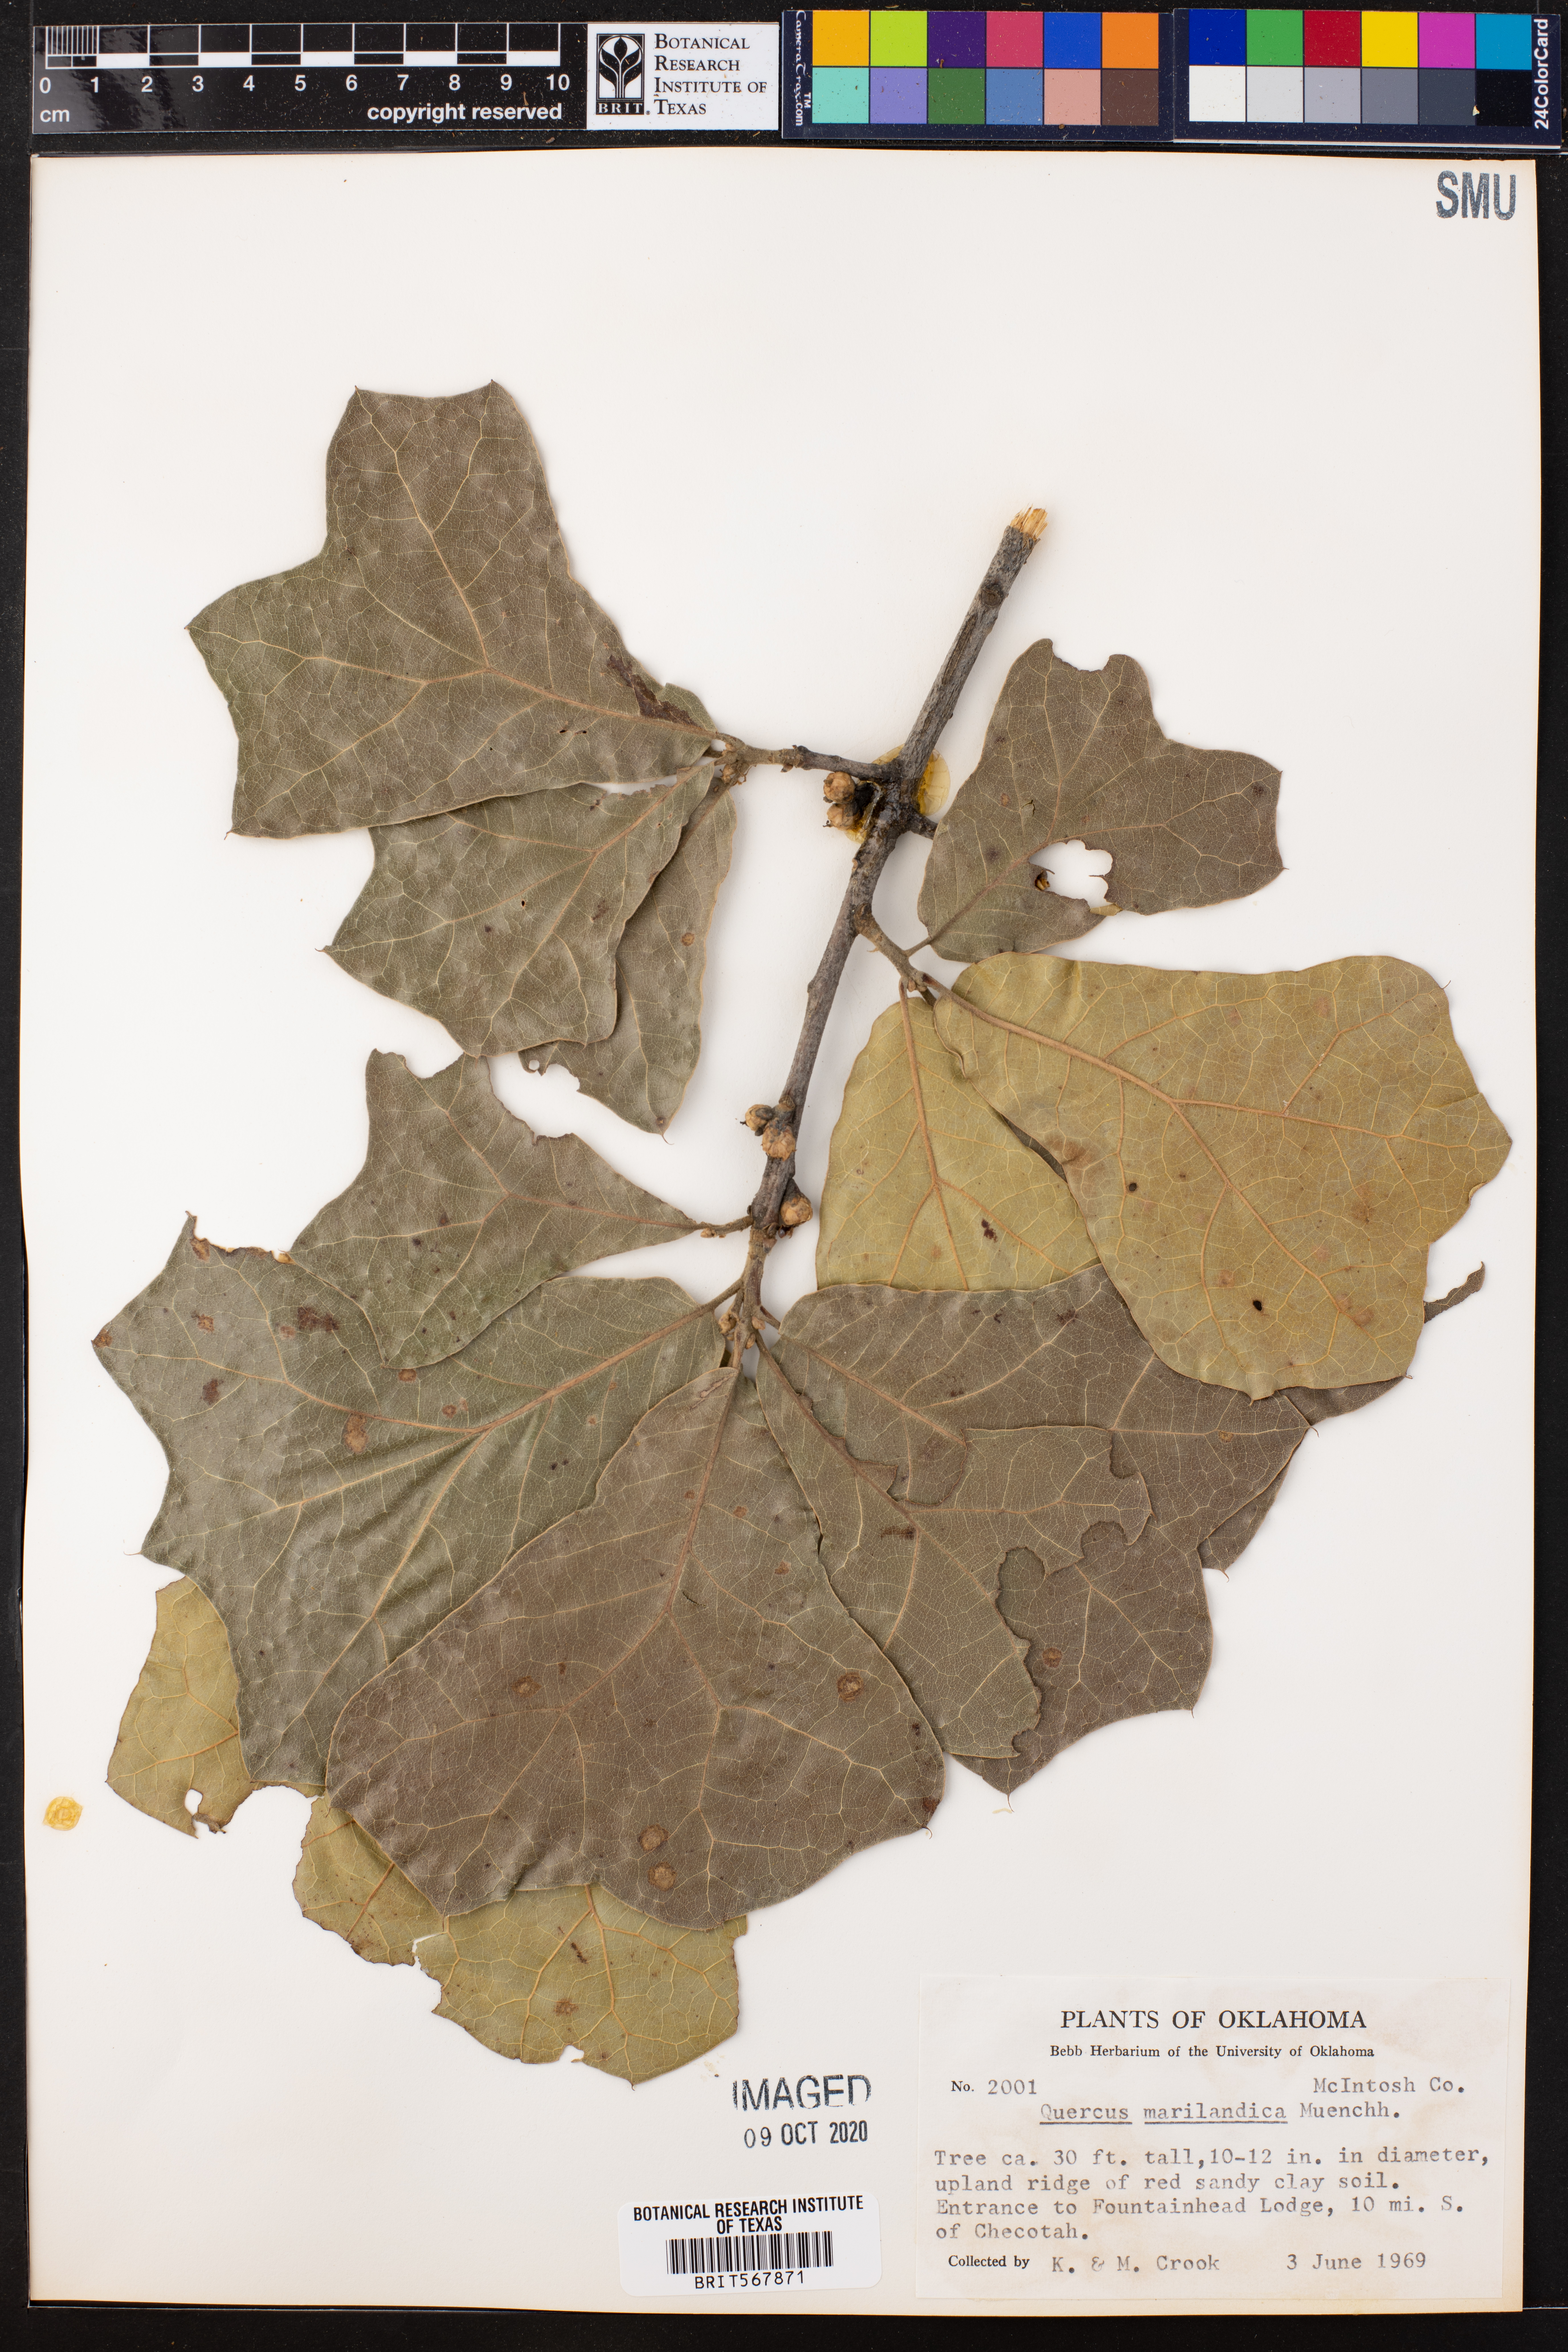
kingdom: Plantae
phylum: Tracheophyta
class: Magnoliopsida
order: Fagales
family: Fagaceae
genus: Quercus
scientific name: Quercus marilandica
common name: Blackjack oak
